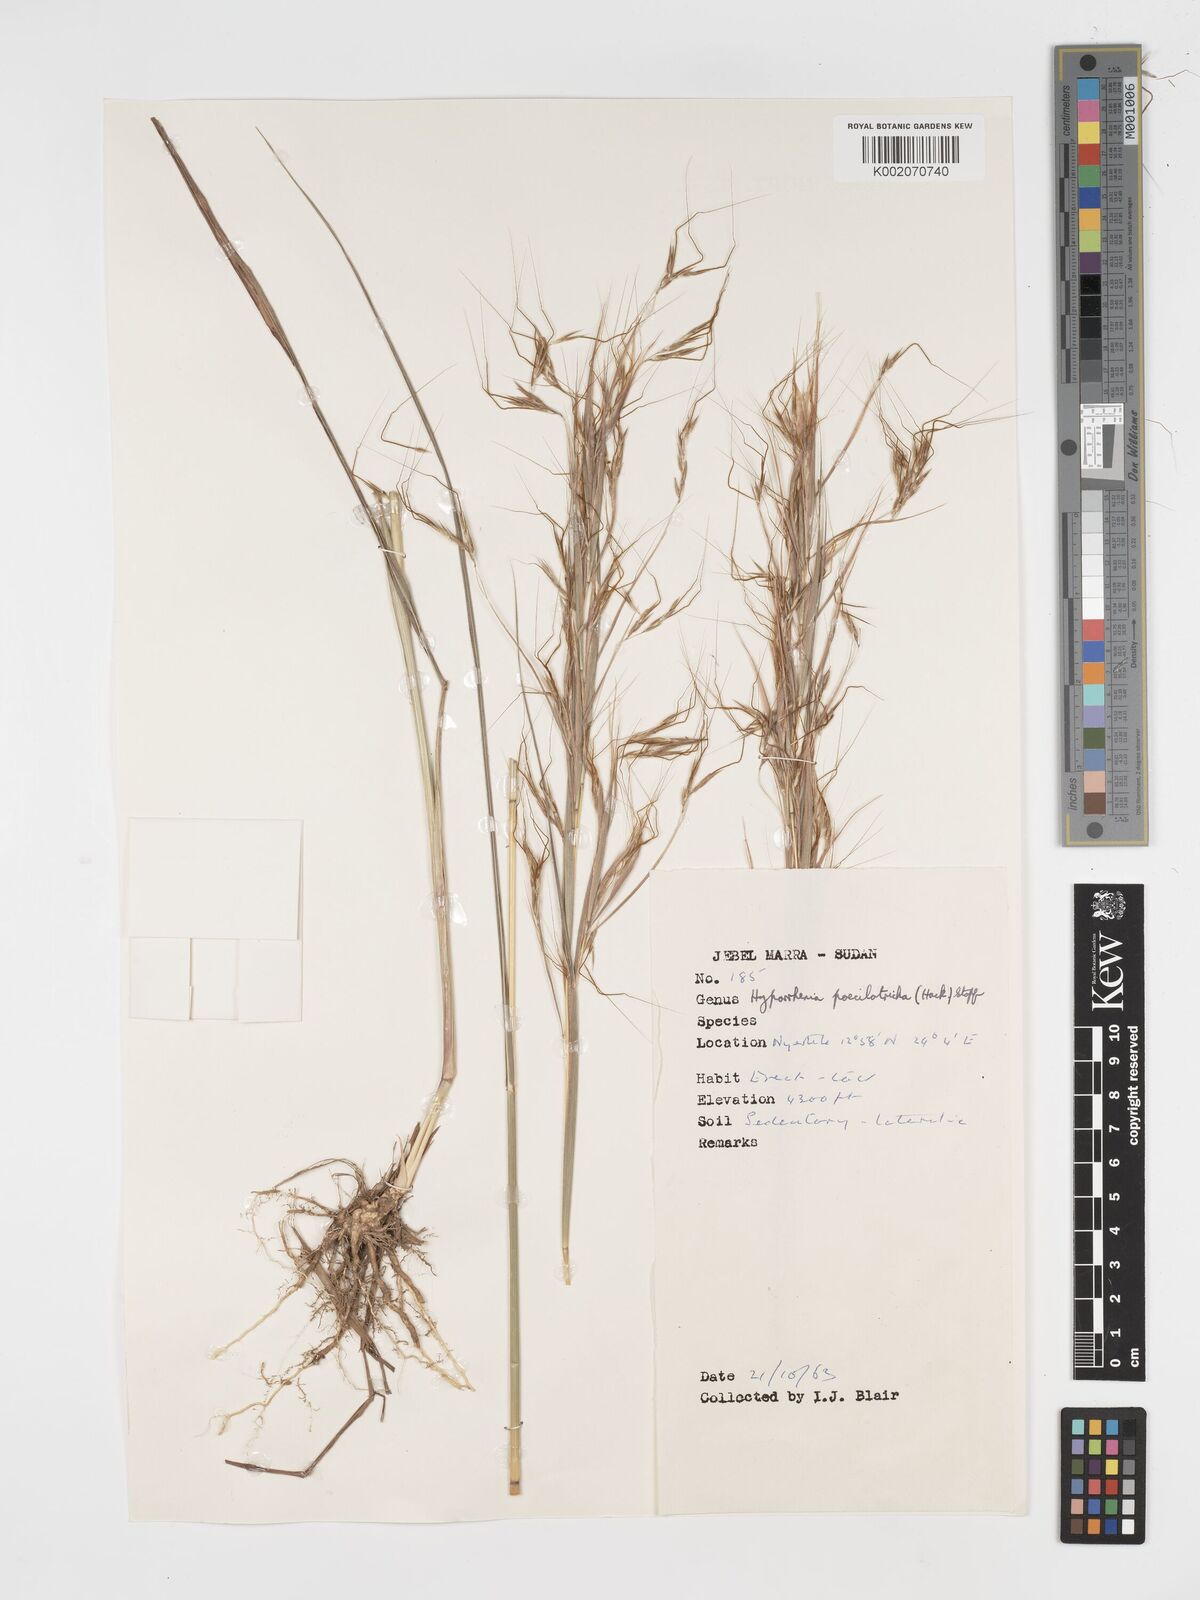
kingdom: Plantae
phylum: Tracheophyta
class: Liliopsida
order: Poales
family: Poaceae
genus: Hyparrhenia
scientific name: Hyparrhenia poecilotricha
